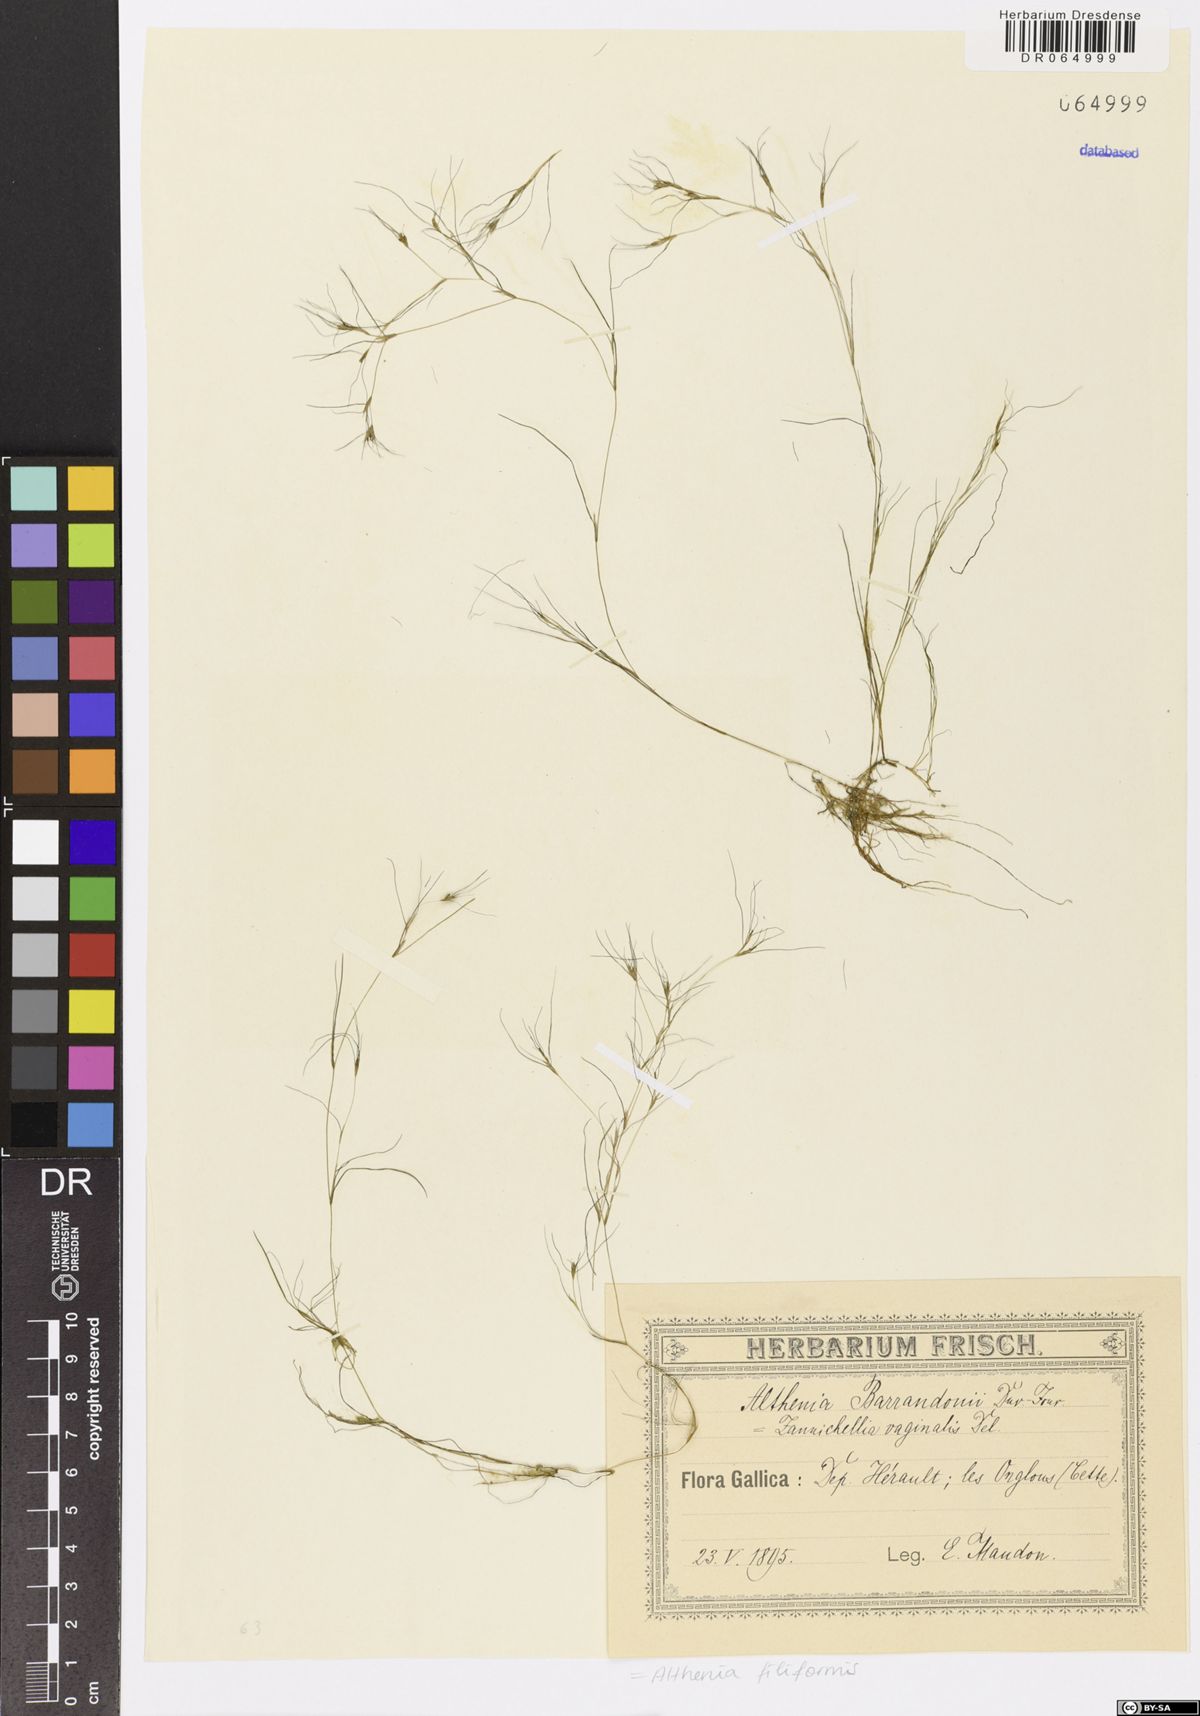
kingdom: Plantae
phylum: Tracheophyta
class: Liliopsida
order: Alismatales
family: Potamogetonaceae
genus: Althenia
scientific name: Althenia filiformis
